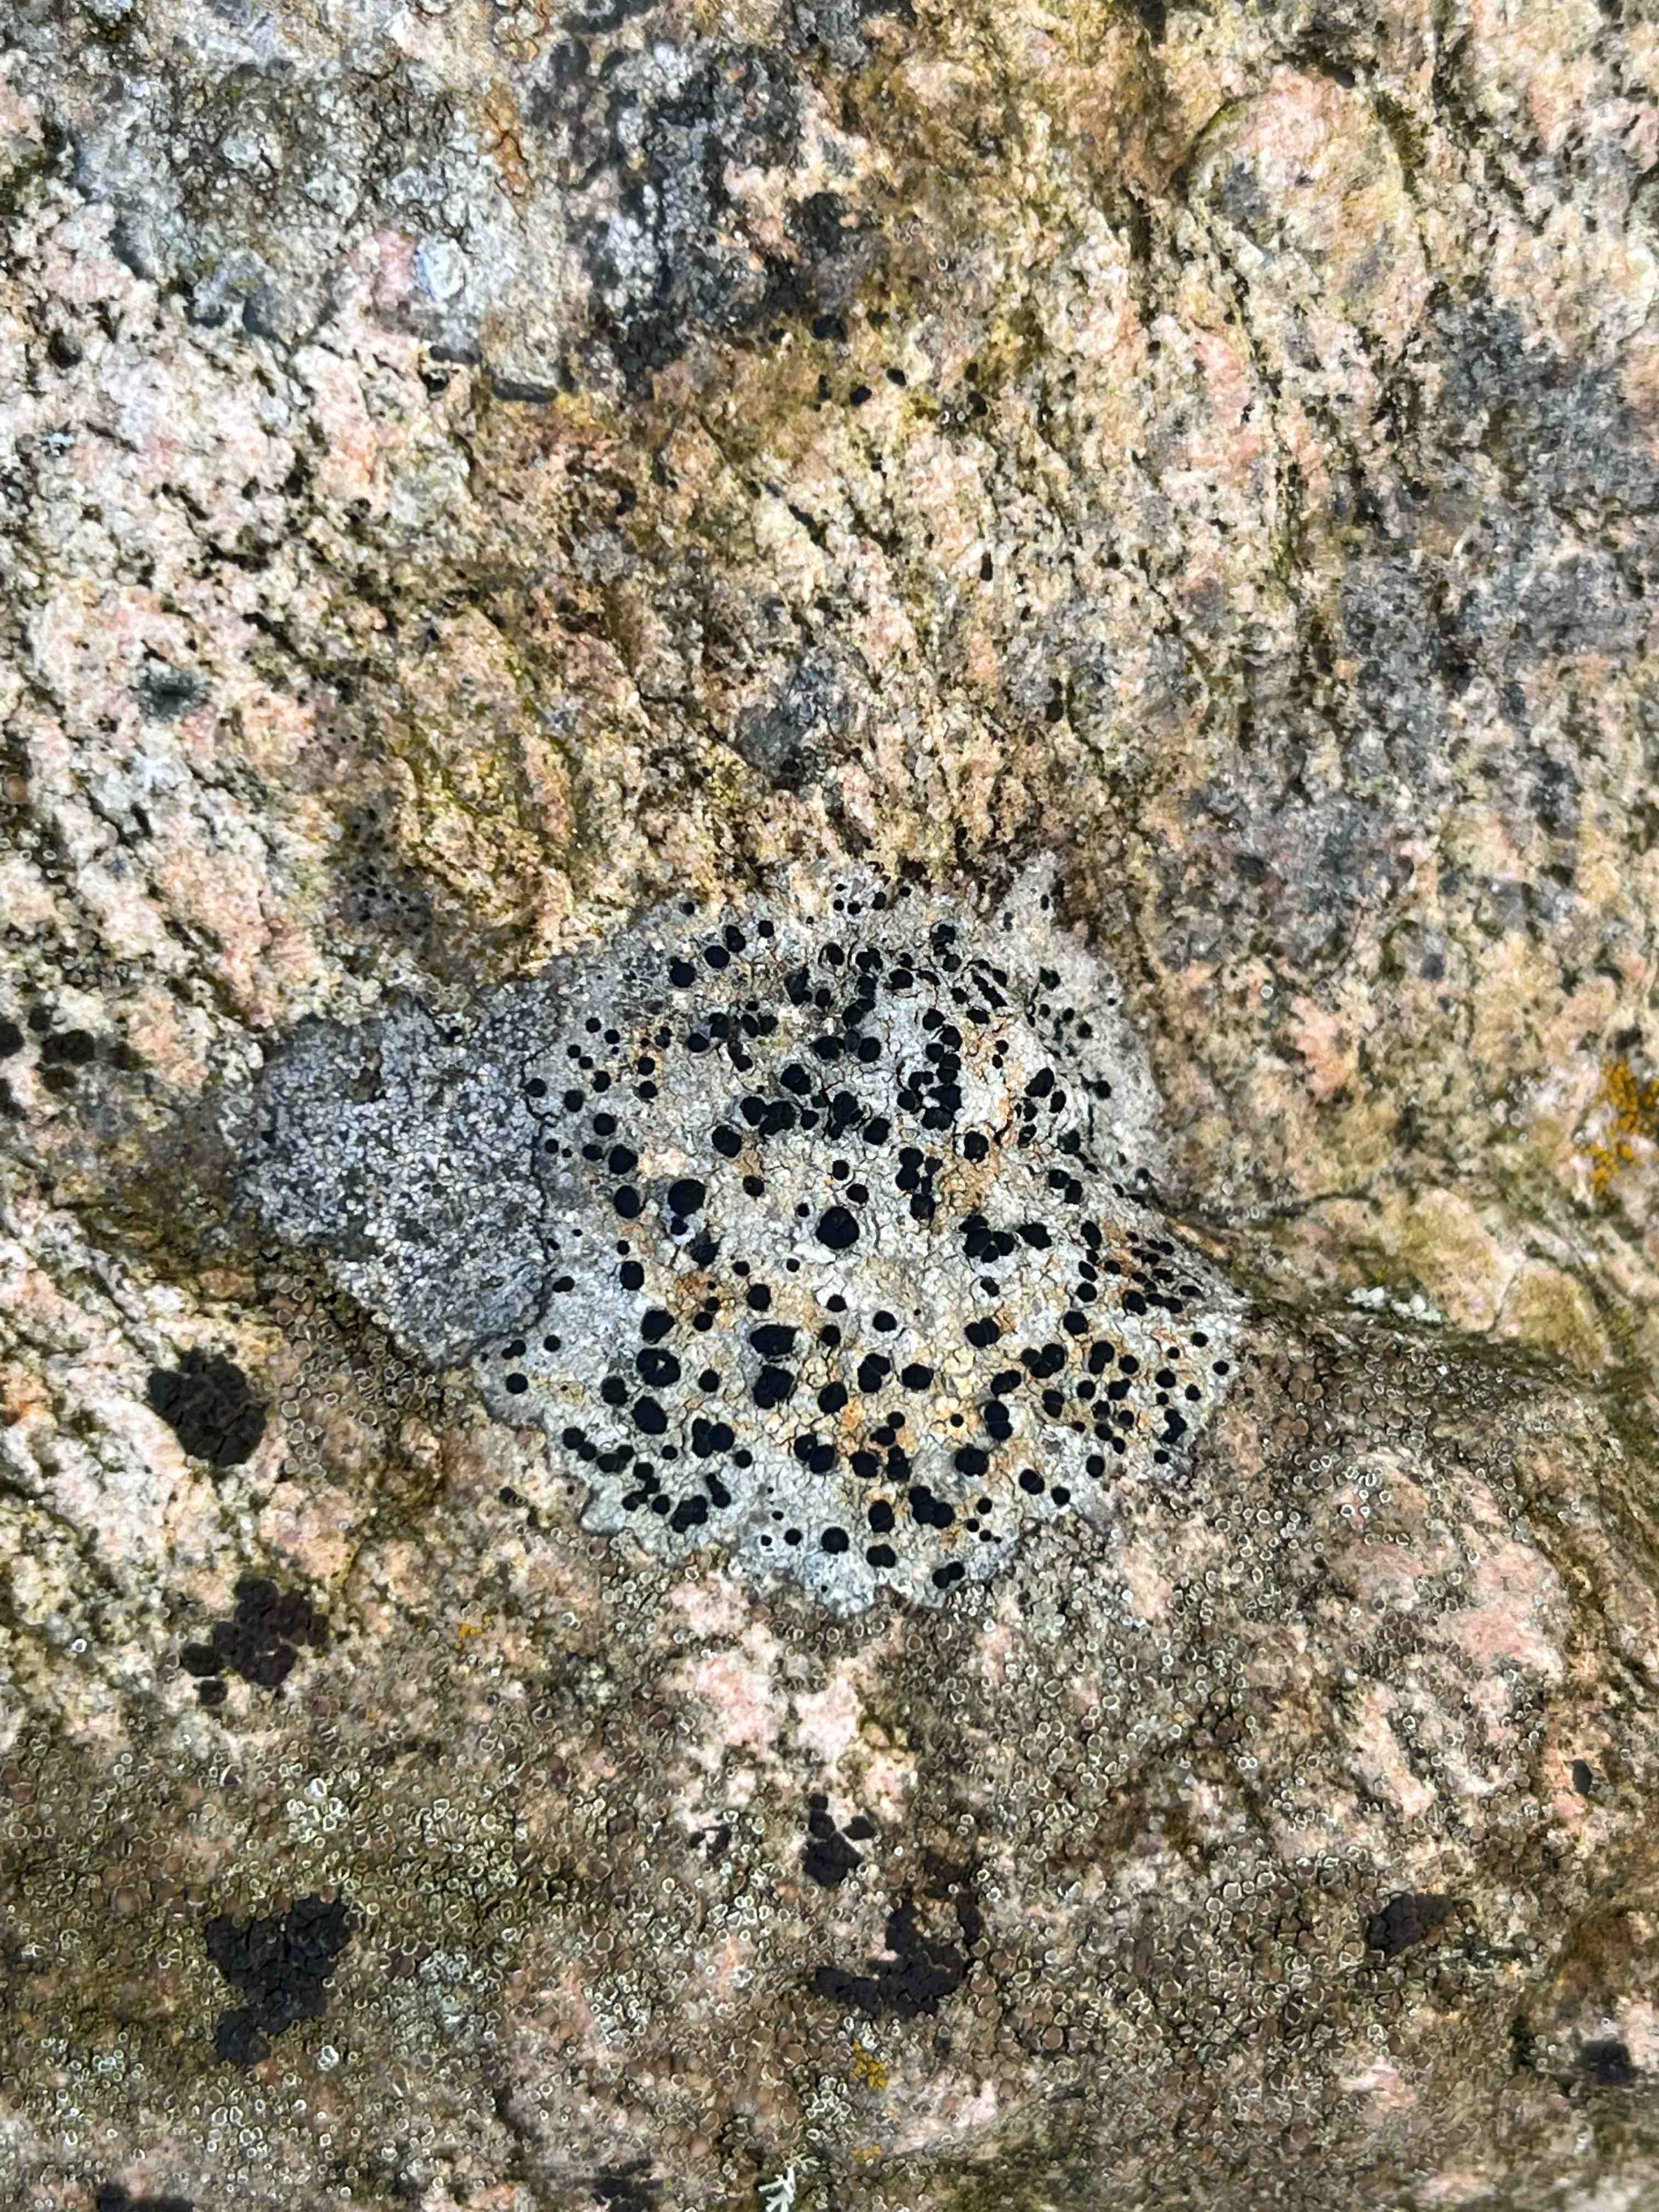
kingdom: Fungi
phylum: Ascomycota
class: Lecanoromycetes
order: Lecanorales
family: Parmeliaceae
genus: Lichen
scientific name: Lichen
